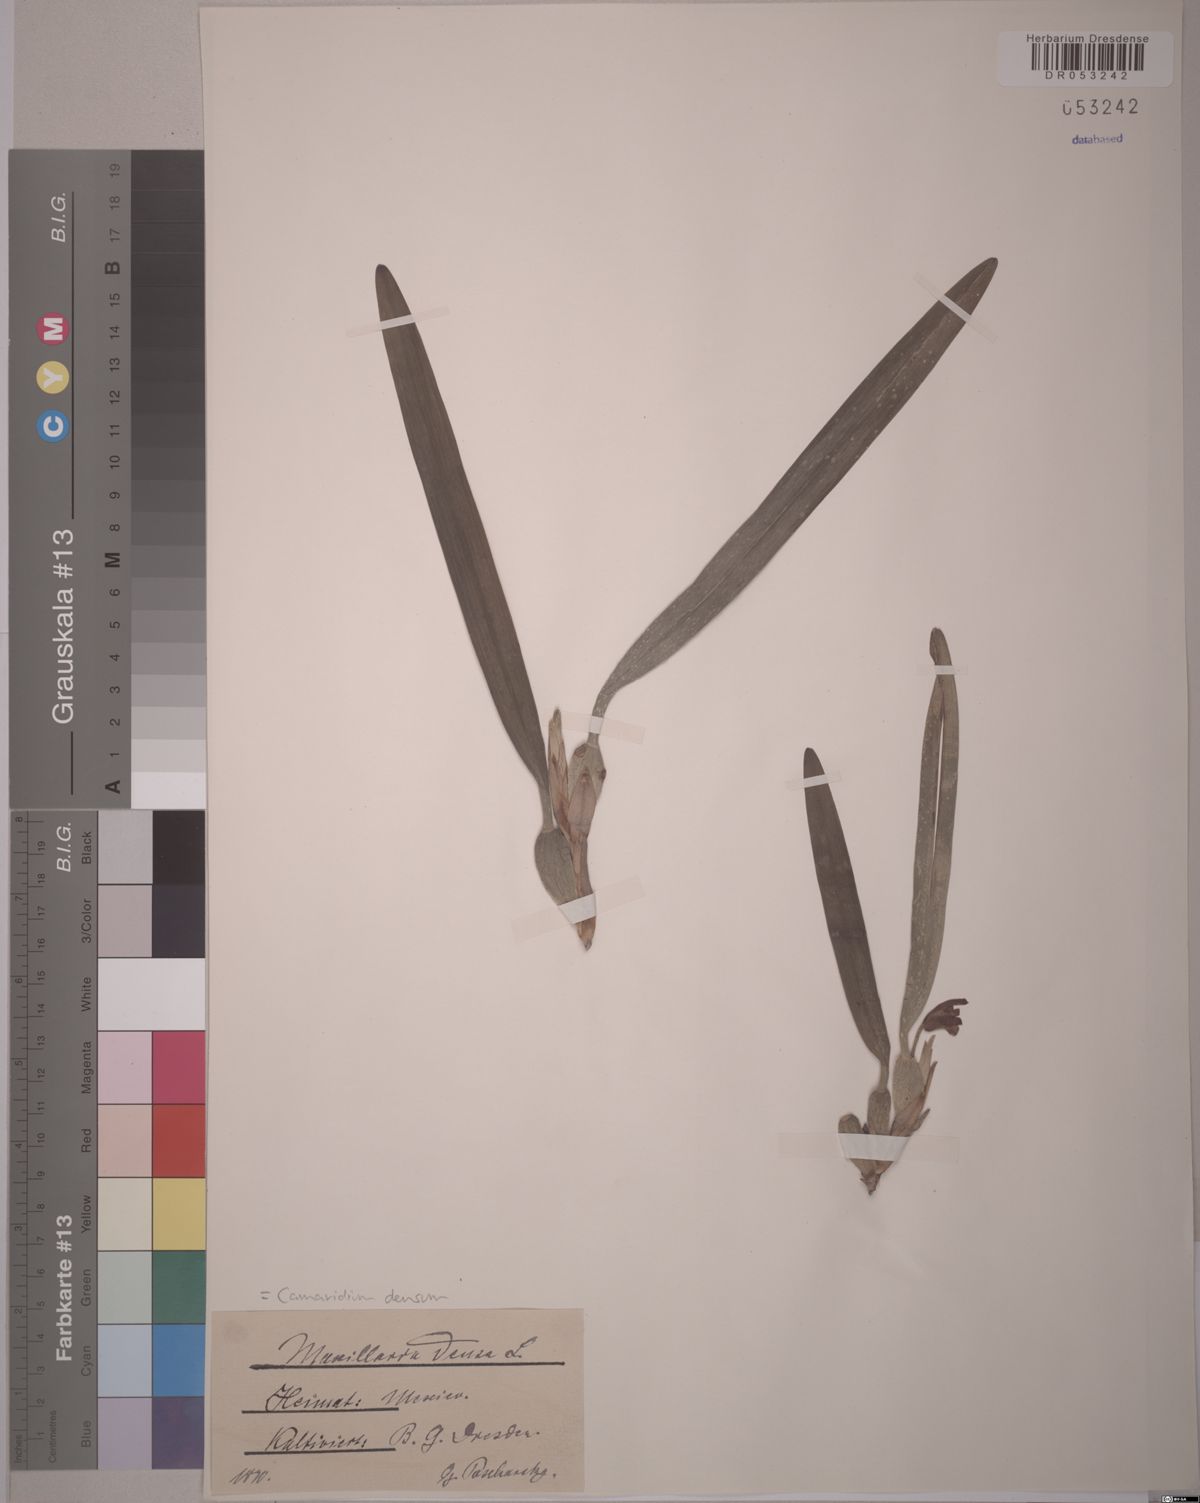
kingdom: Plantae
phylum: Tracheophyta
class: Liliopsida
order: Asparagales
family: Orchidaceae
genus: Maxillaria
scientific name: Maxillaria densa
